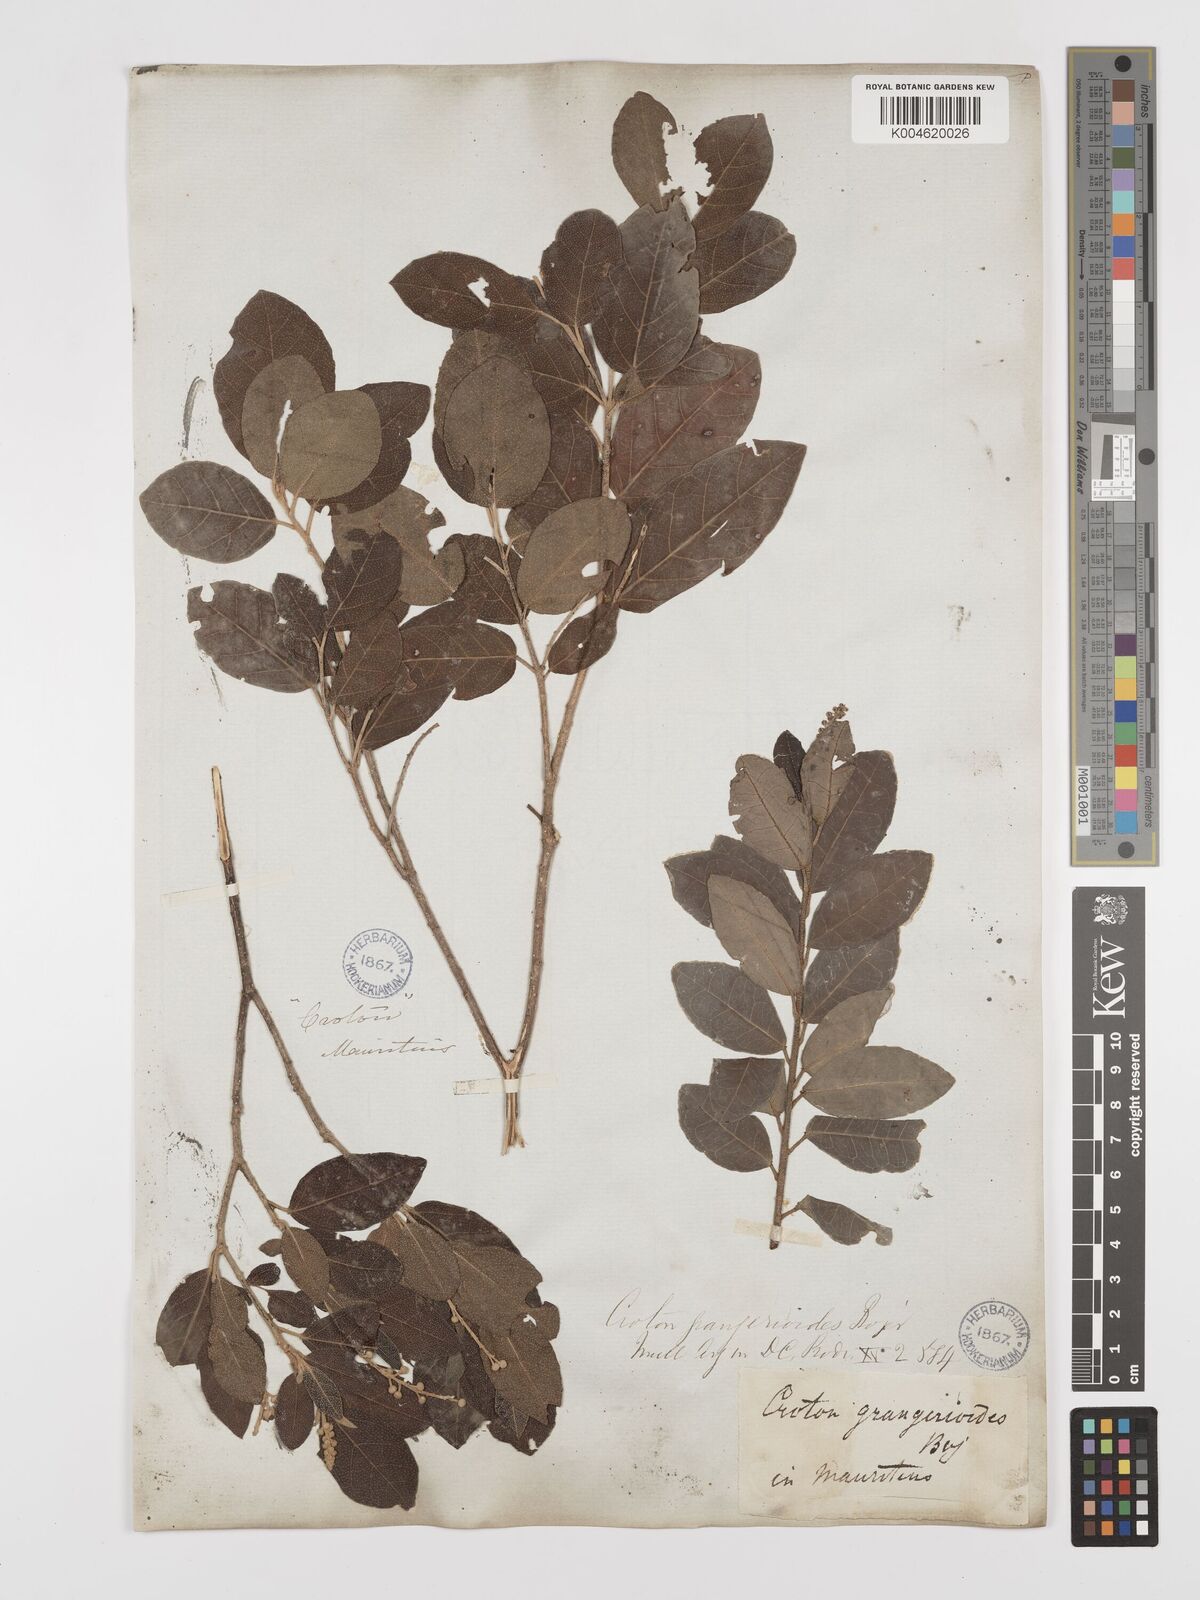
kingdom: Plantae
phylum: Tracheophyta
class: Magnoliopsida
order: Malpighiales
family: Euphorbiaceae
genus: Croton
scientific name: Croton grangerioides
